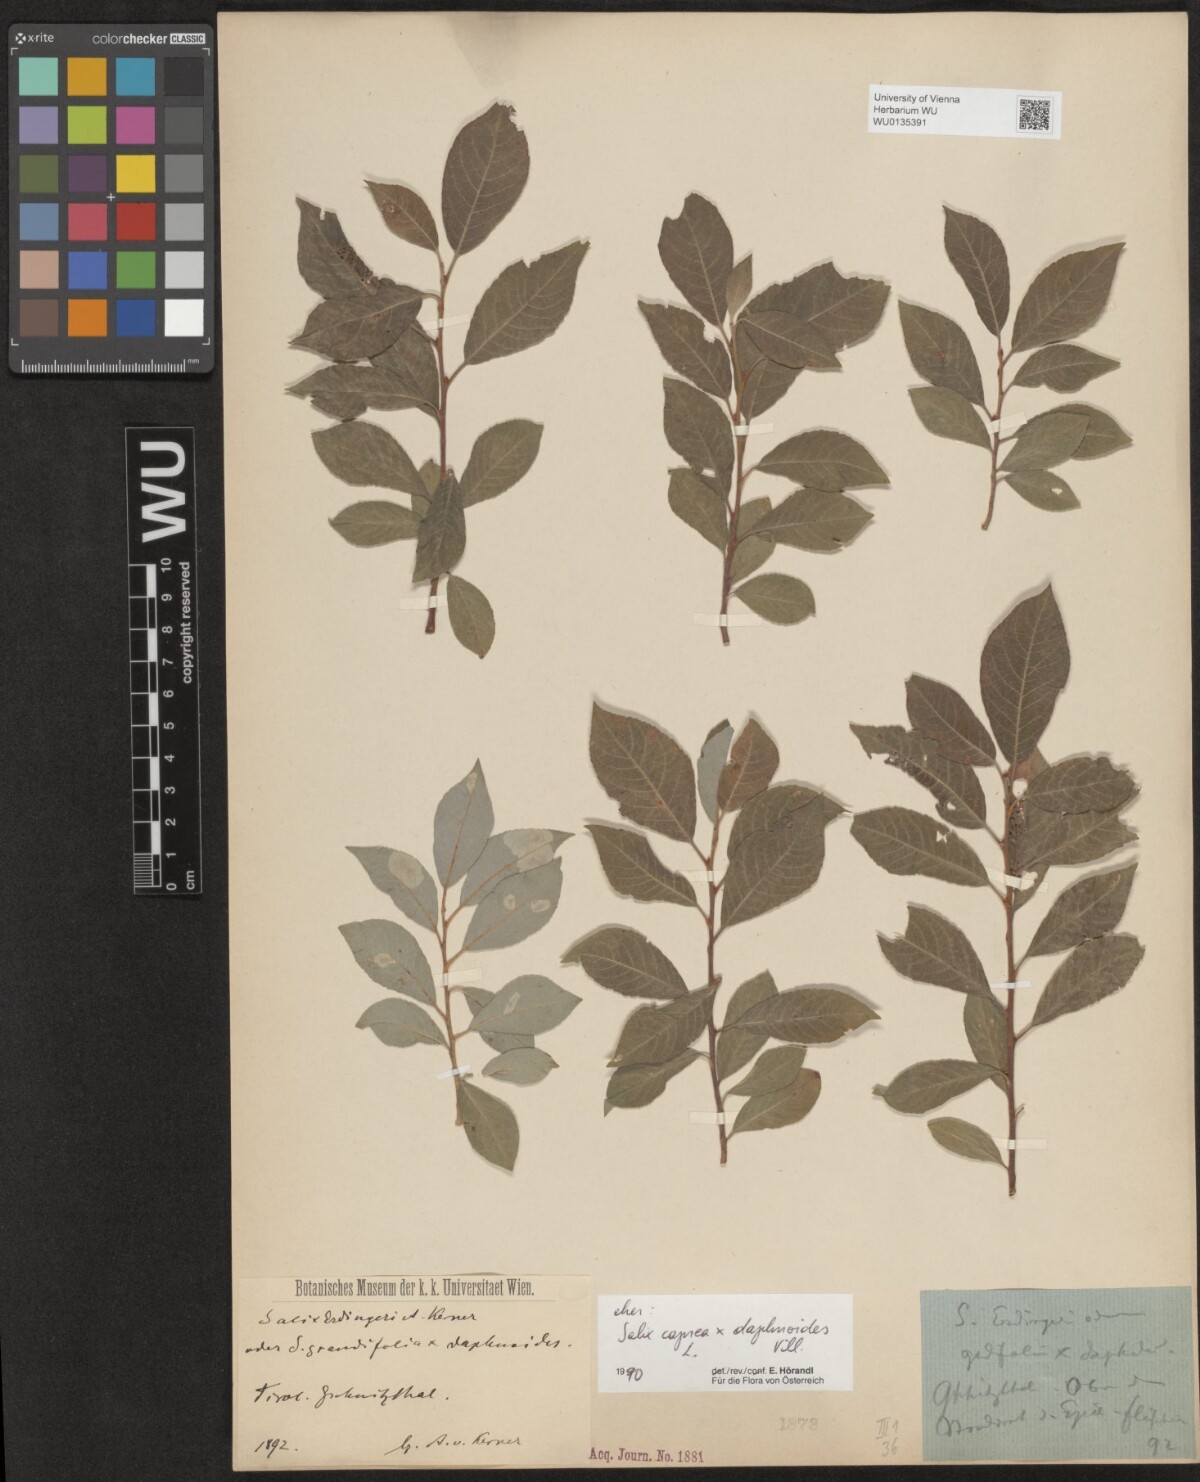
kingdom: Plantae
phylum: Tracheophyta
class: Magnoliopsida
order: Malpighiales
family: Salicaceae
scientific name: Salicaceae
